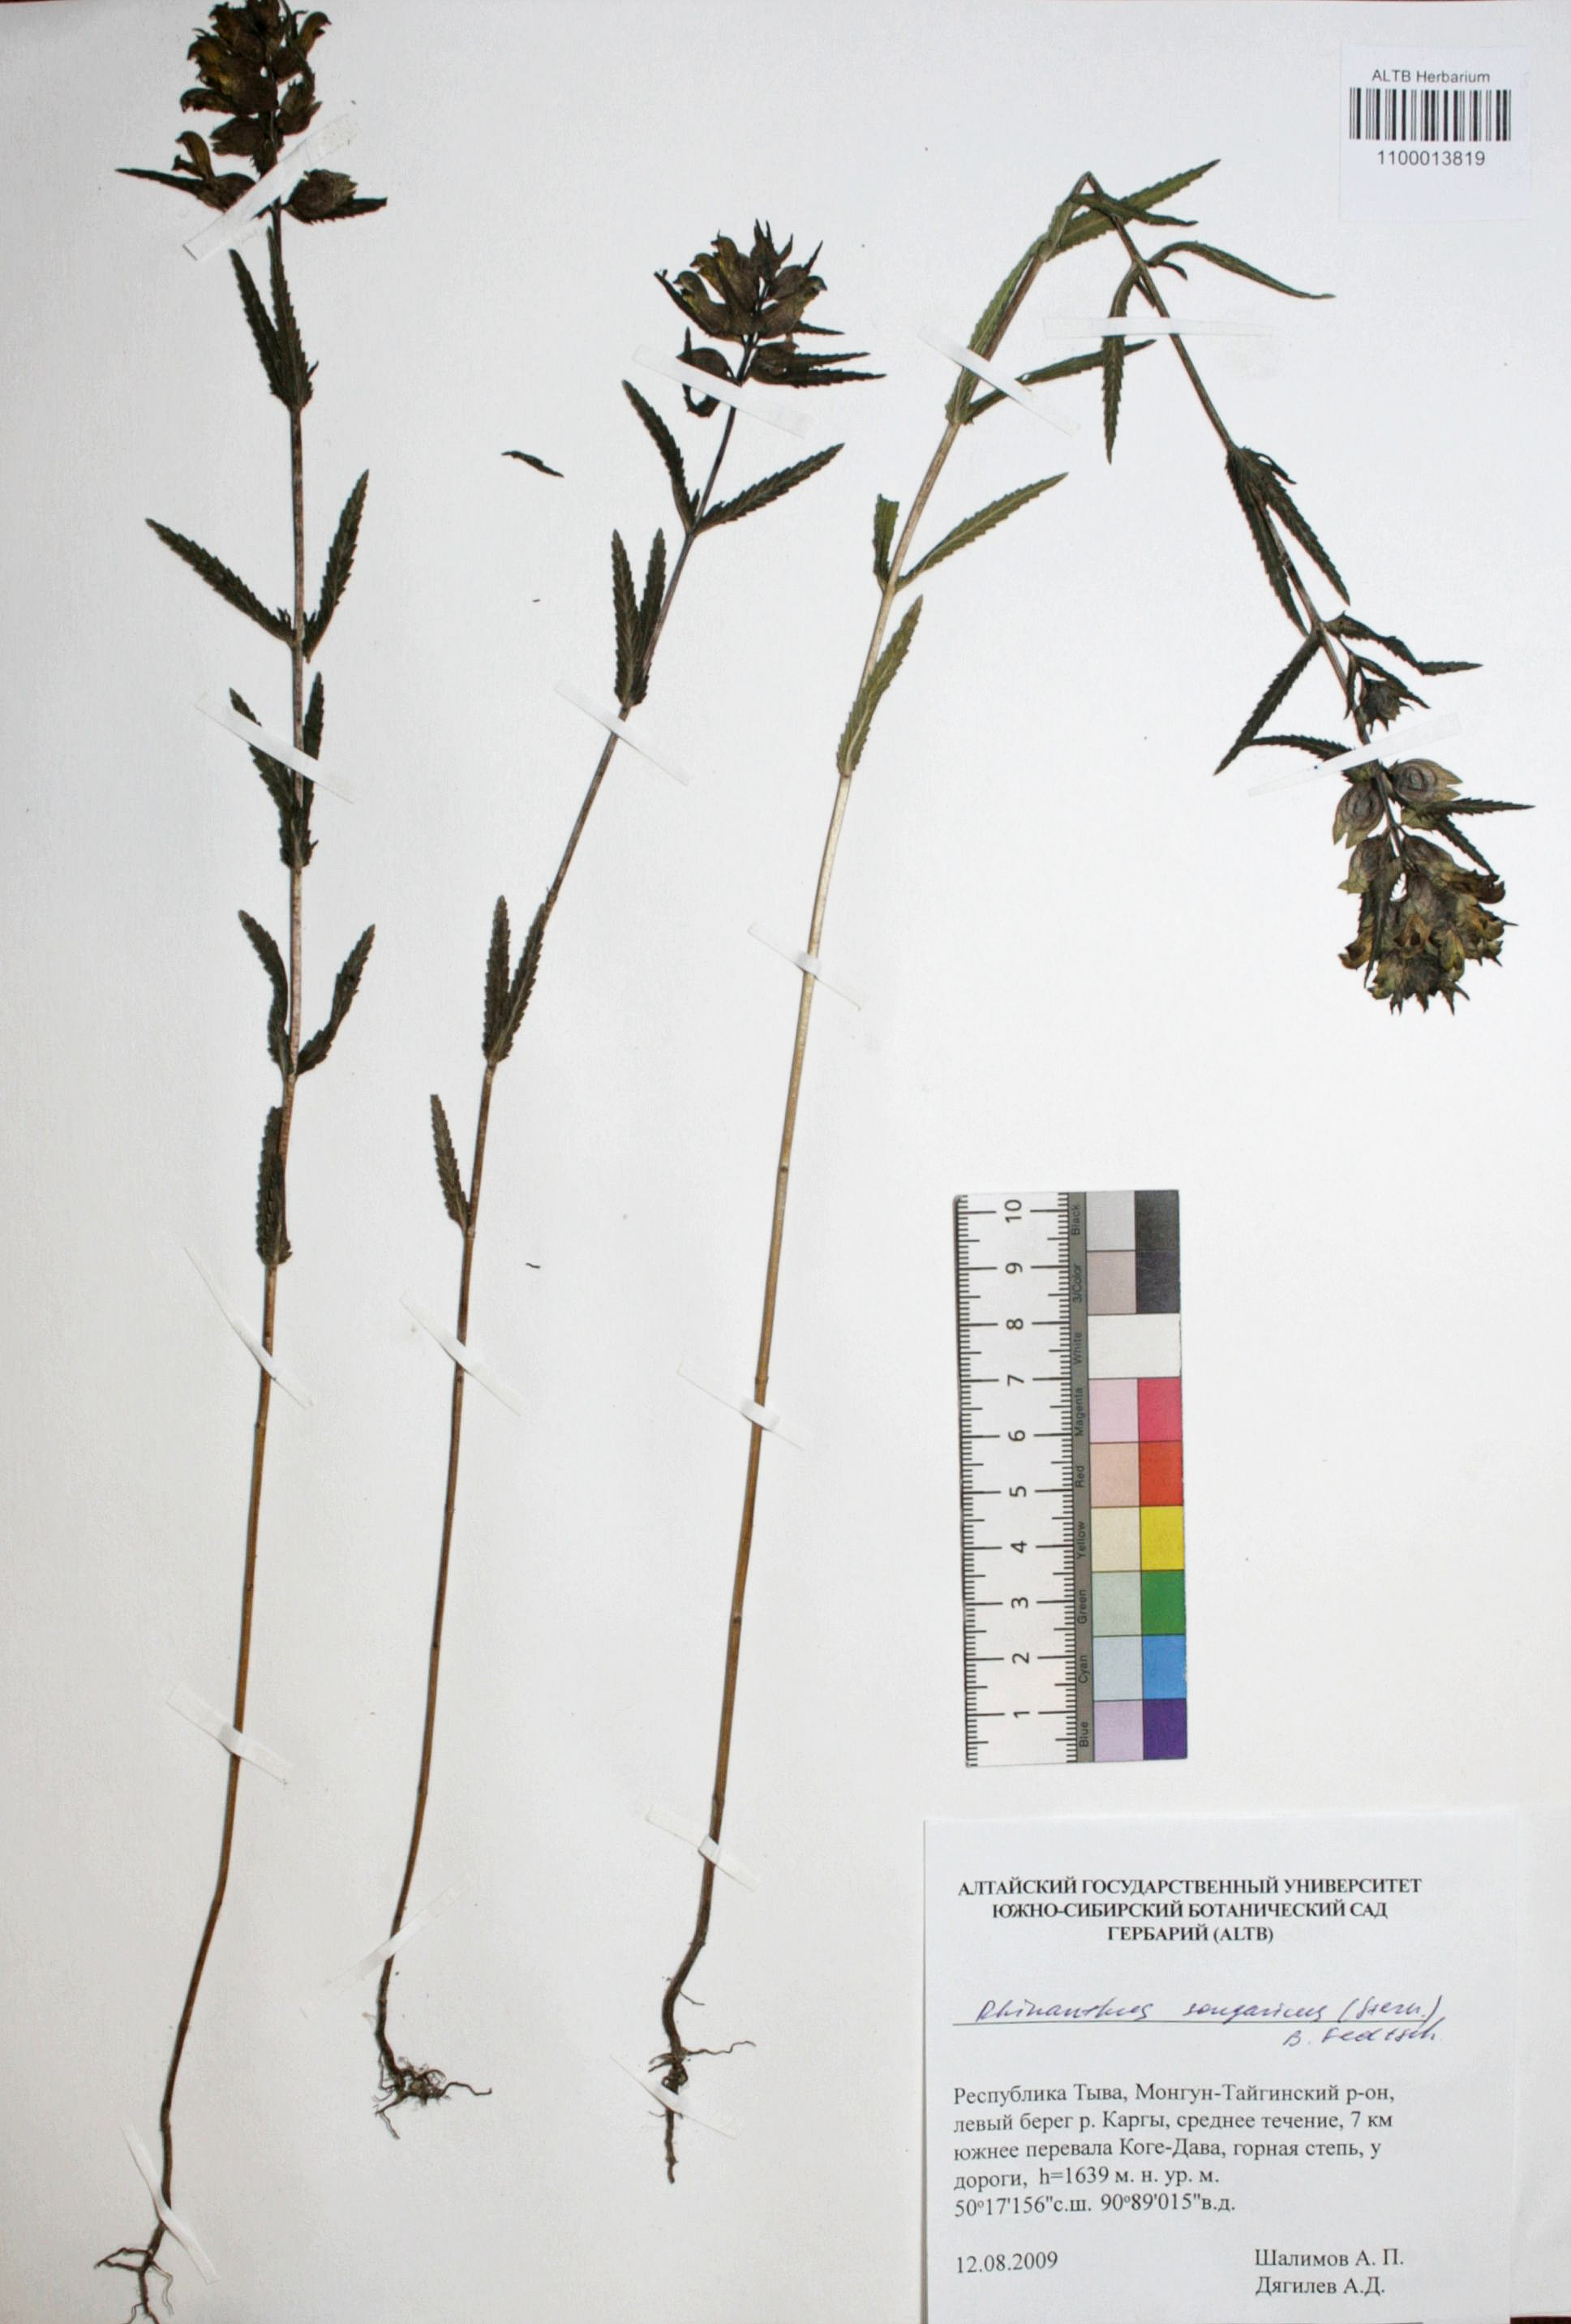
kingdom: Plantae
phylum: Tracheophyta
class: Magnoliopsida
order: Lamiales
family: Orobanchaceae
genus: Rhinanthus
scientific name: Rhinanthus songaricus
